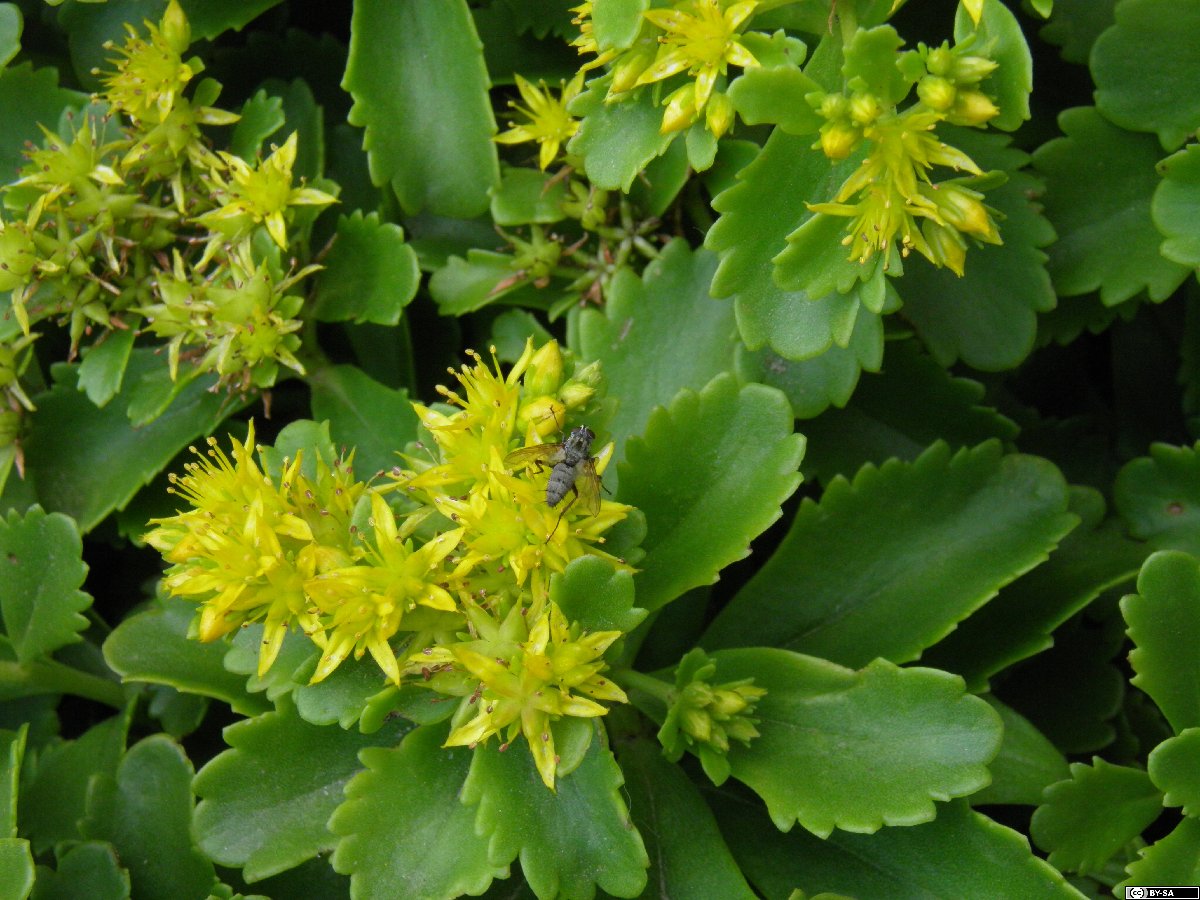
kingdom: Plantae
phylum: Tracheophyta
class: Magnoliopsida
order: Saxifragales
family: Crassulaceae
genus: Phedimus
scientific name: Phedimus ellacombeanus
